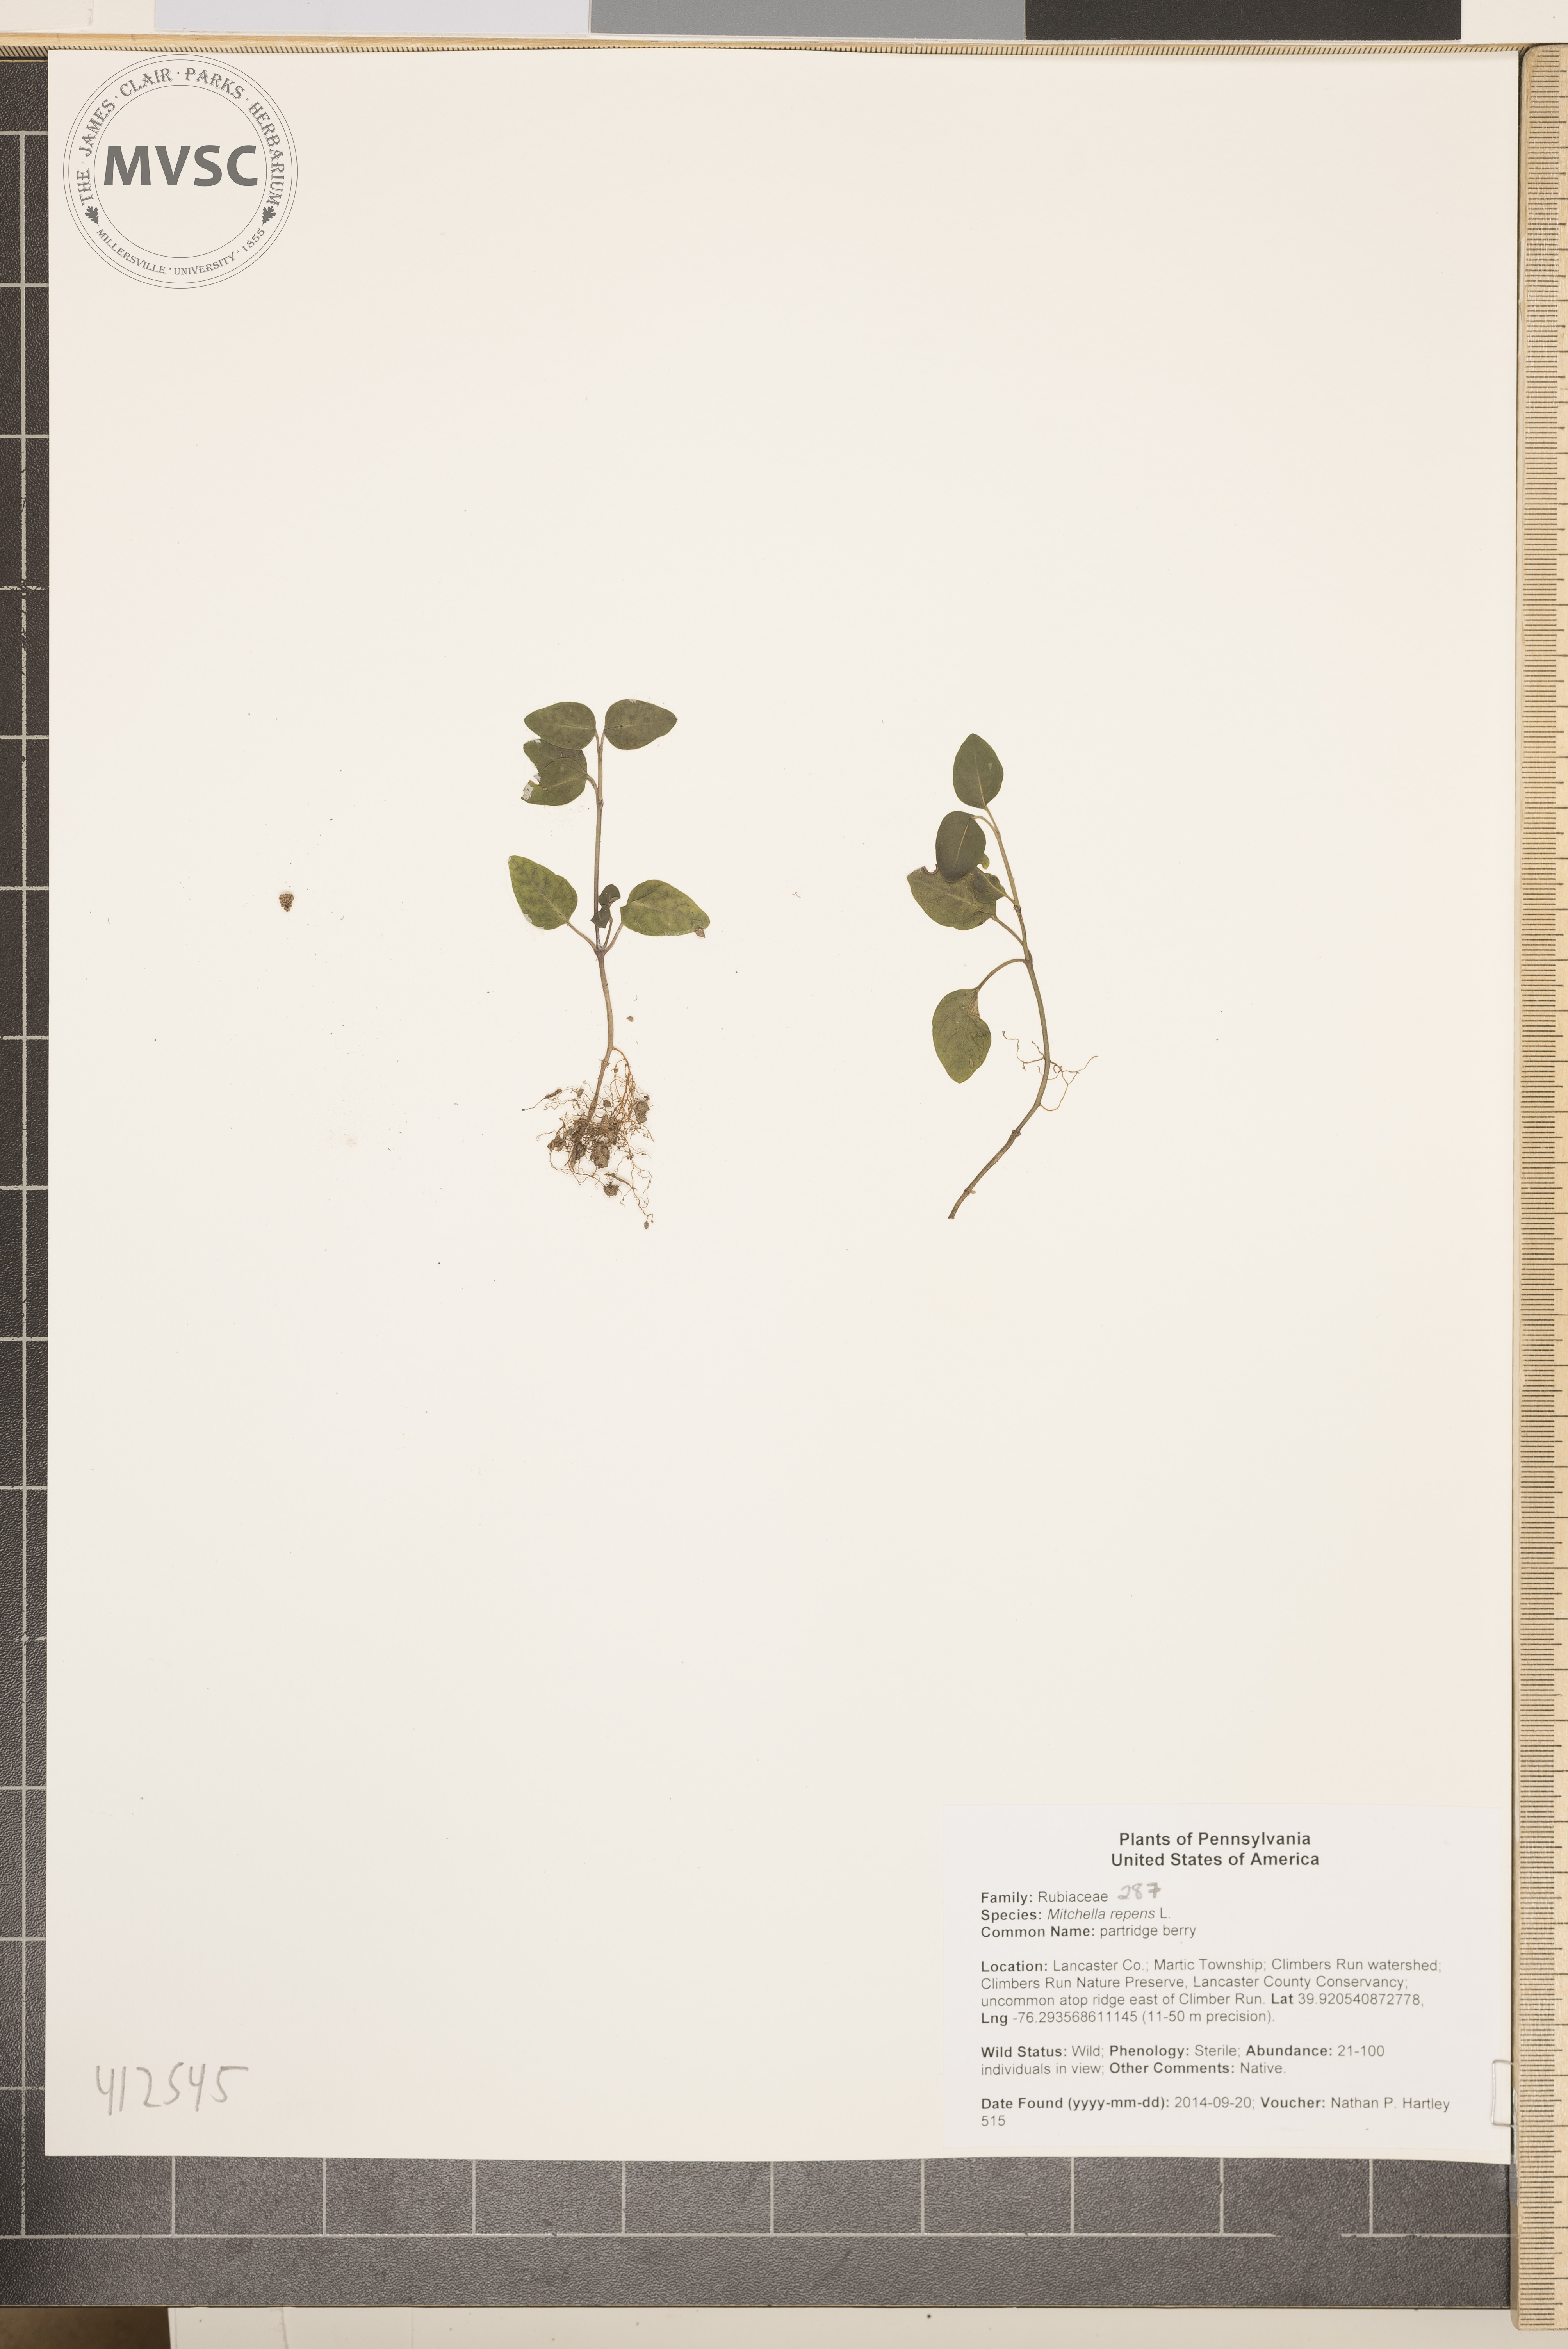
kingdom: Plantae
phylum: Tracheophyta
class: Magnoliopsida
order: Gentianales
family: Rubiaceae
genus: Mitchella
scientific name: Mitchella repens
